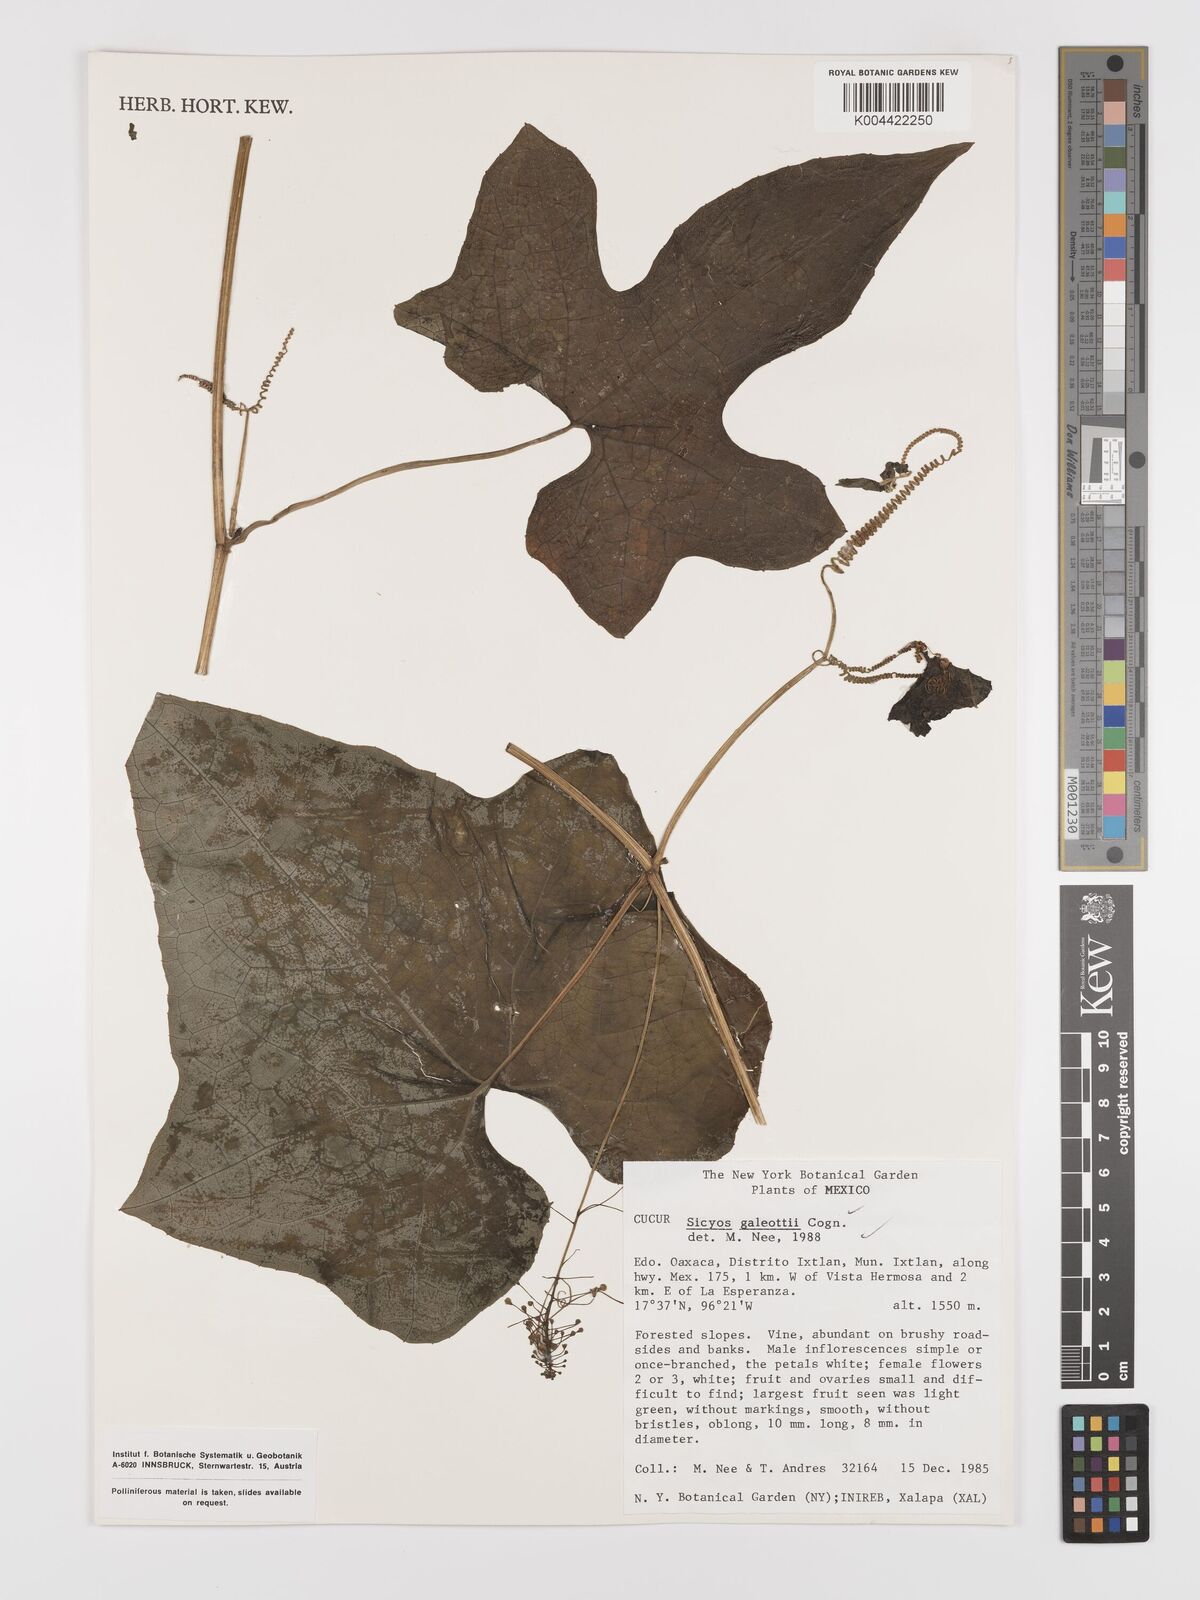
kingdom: Plantae
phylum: Tracheophyta
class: Magnoliopsida
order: Cucurbitales
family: Cucurbitaceae
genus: Parasicyos
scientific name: Parasicyos
